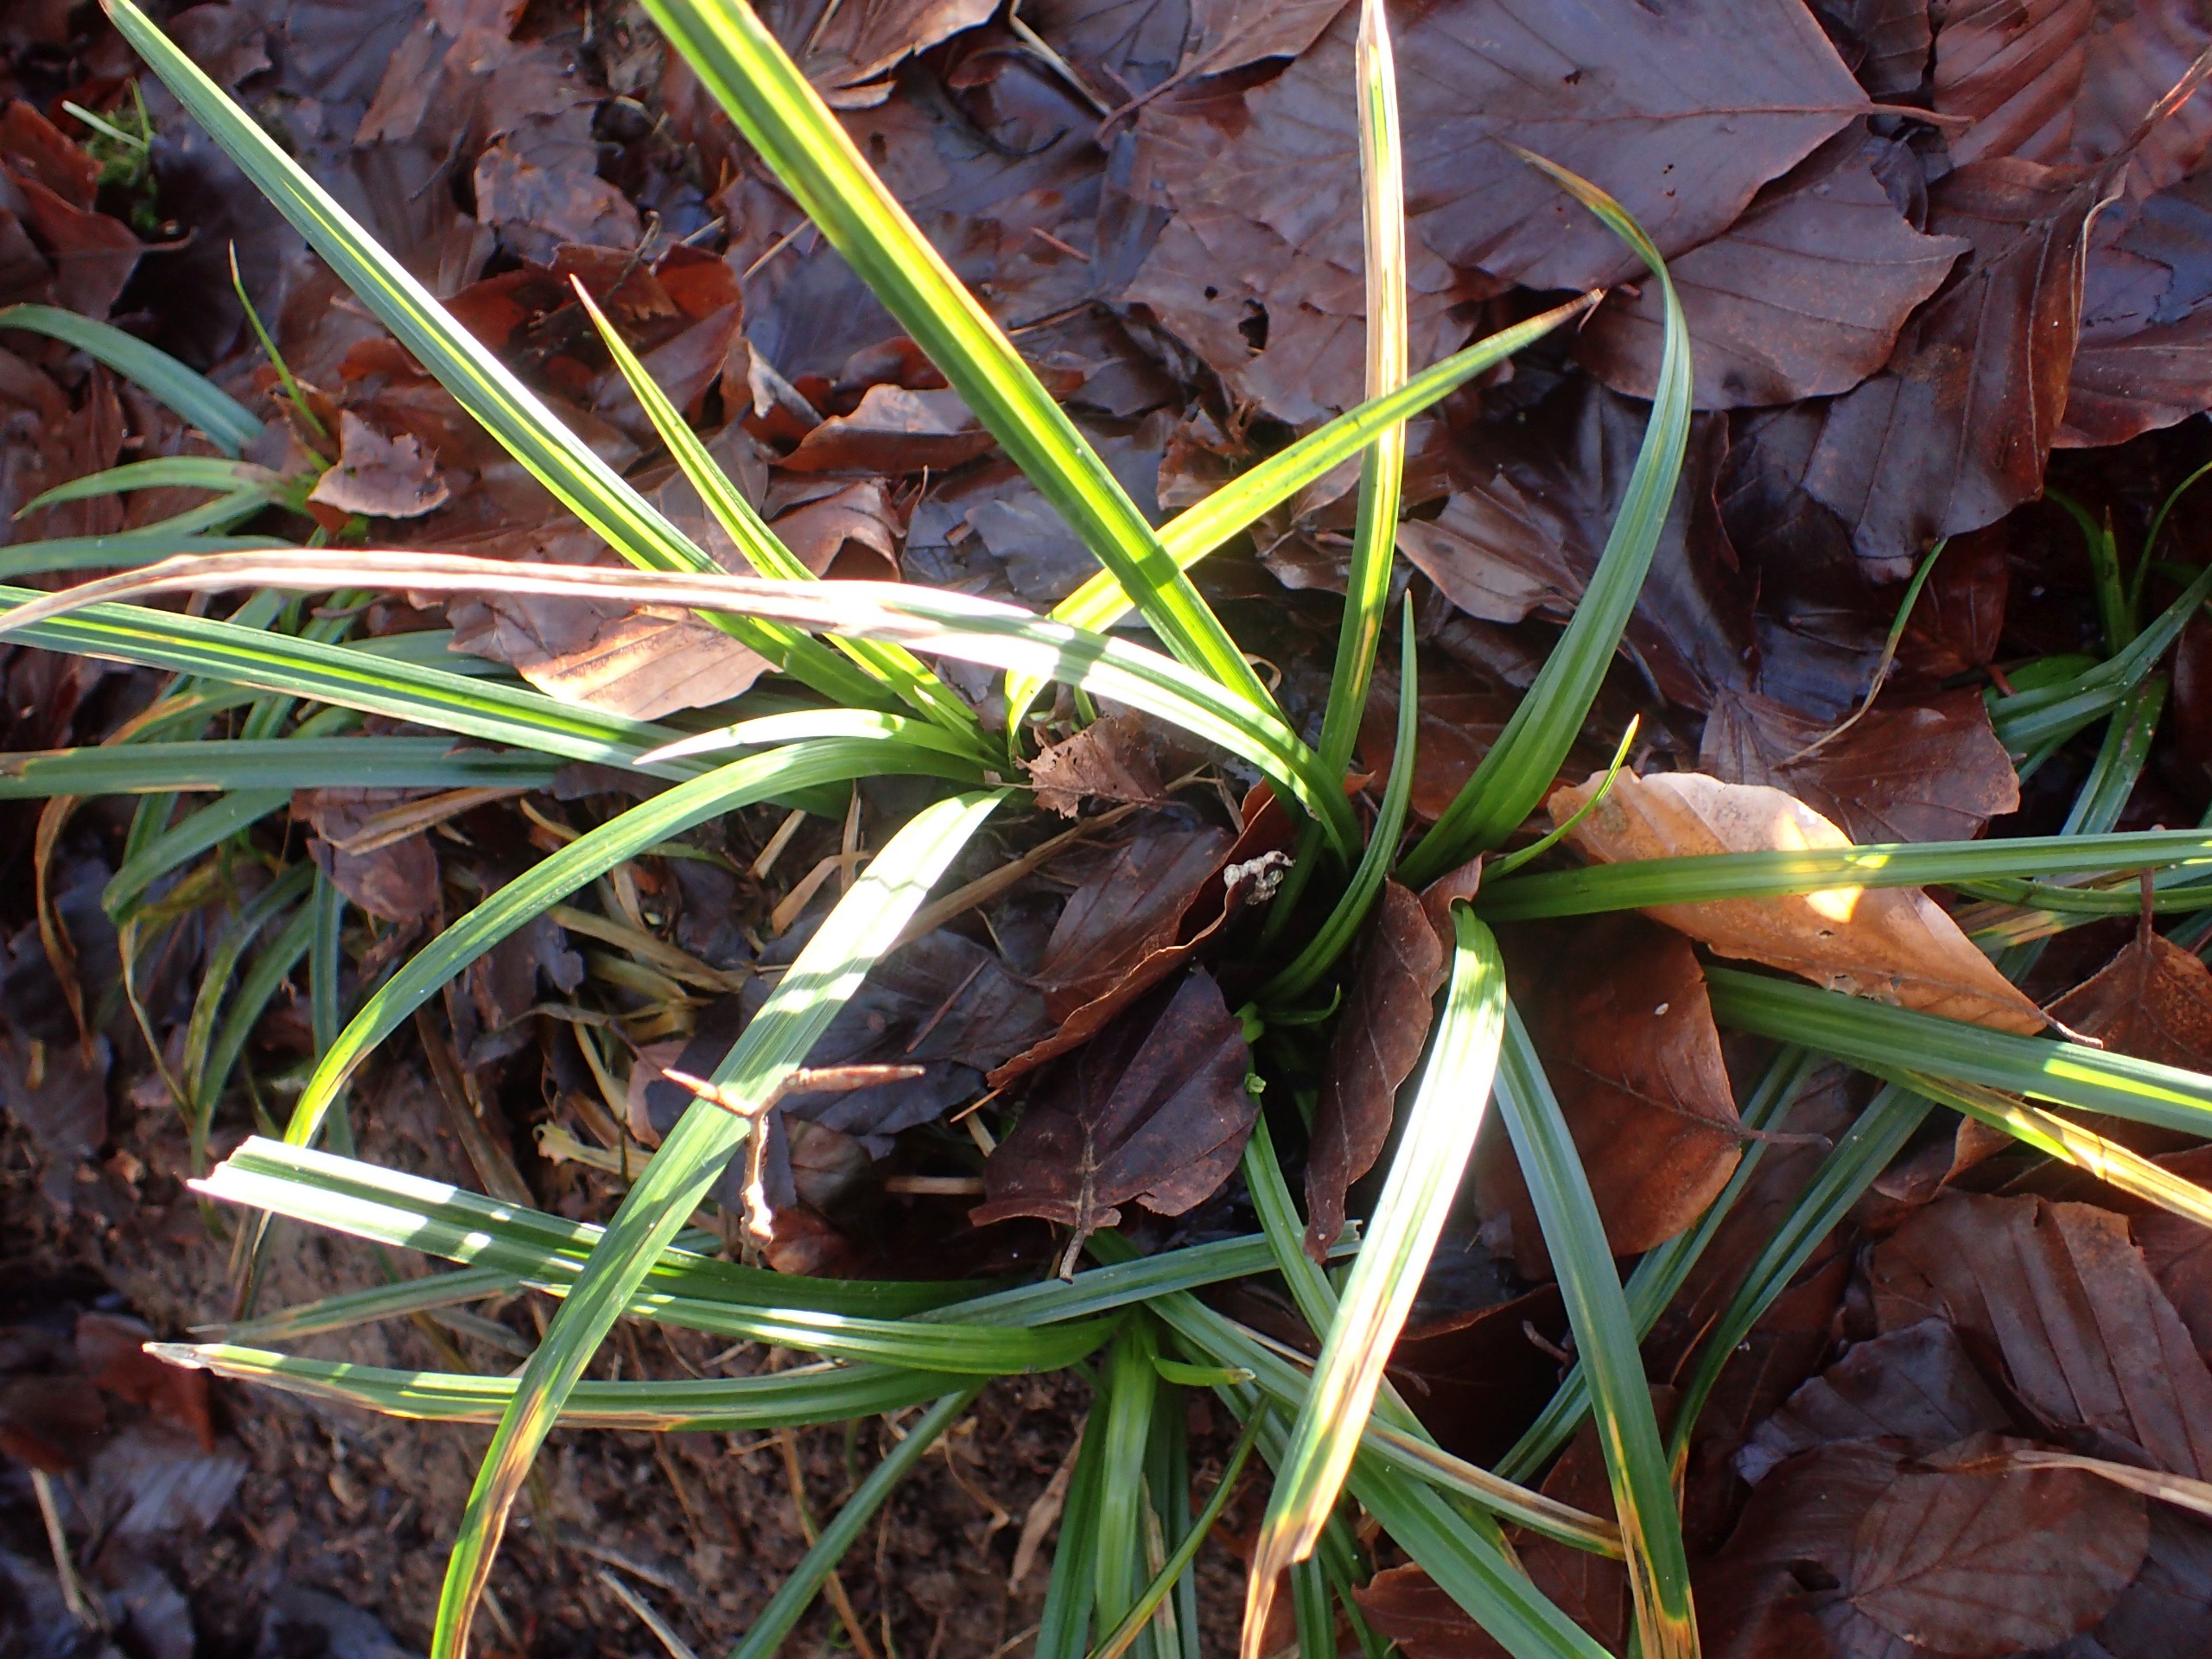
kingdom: Plantae
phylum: Tracheophyta
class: Liliopsida
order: Poales
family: Cyperaceae
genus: Carex
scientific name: Carex sylvatica
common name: Skov-star
